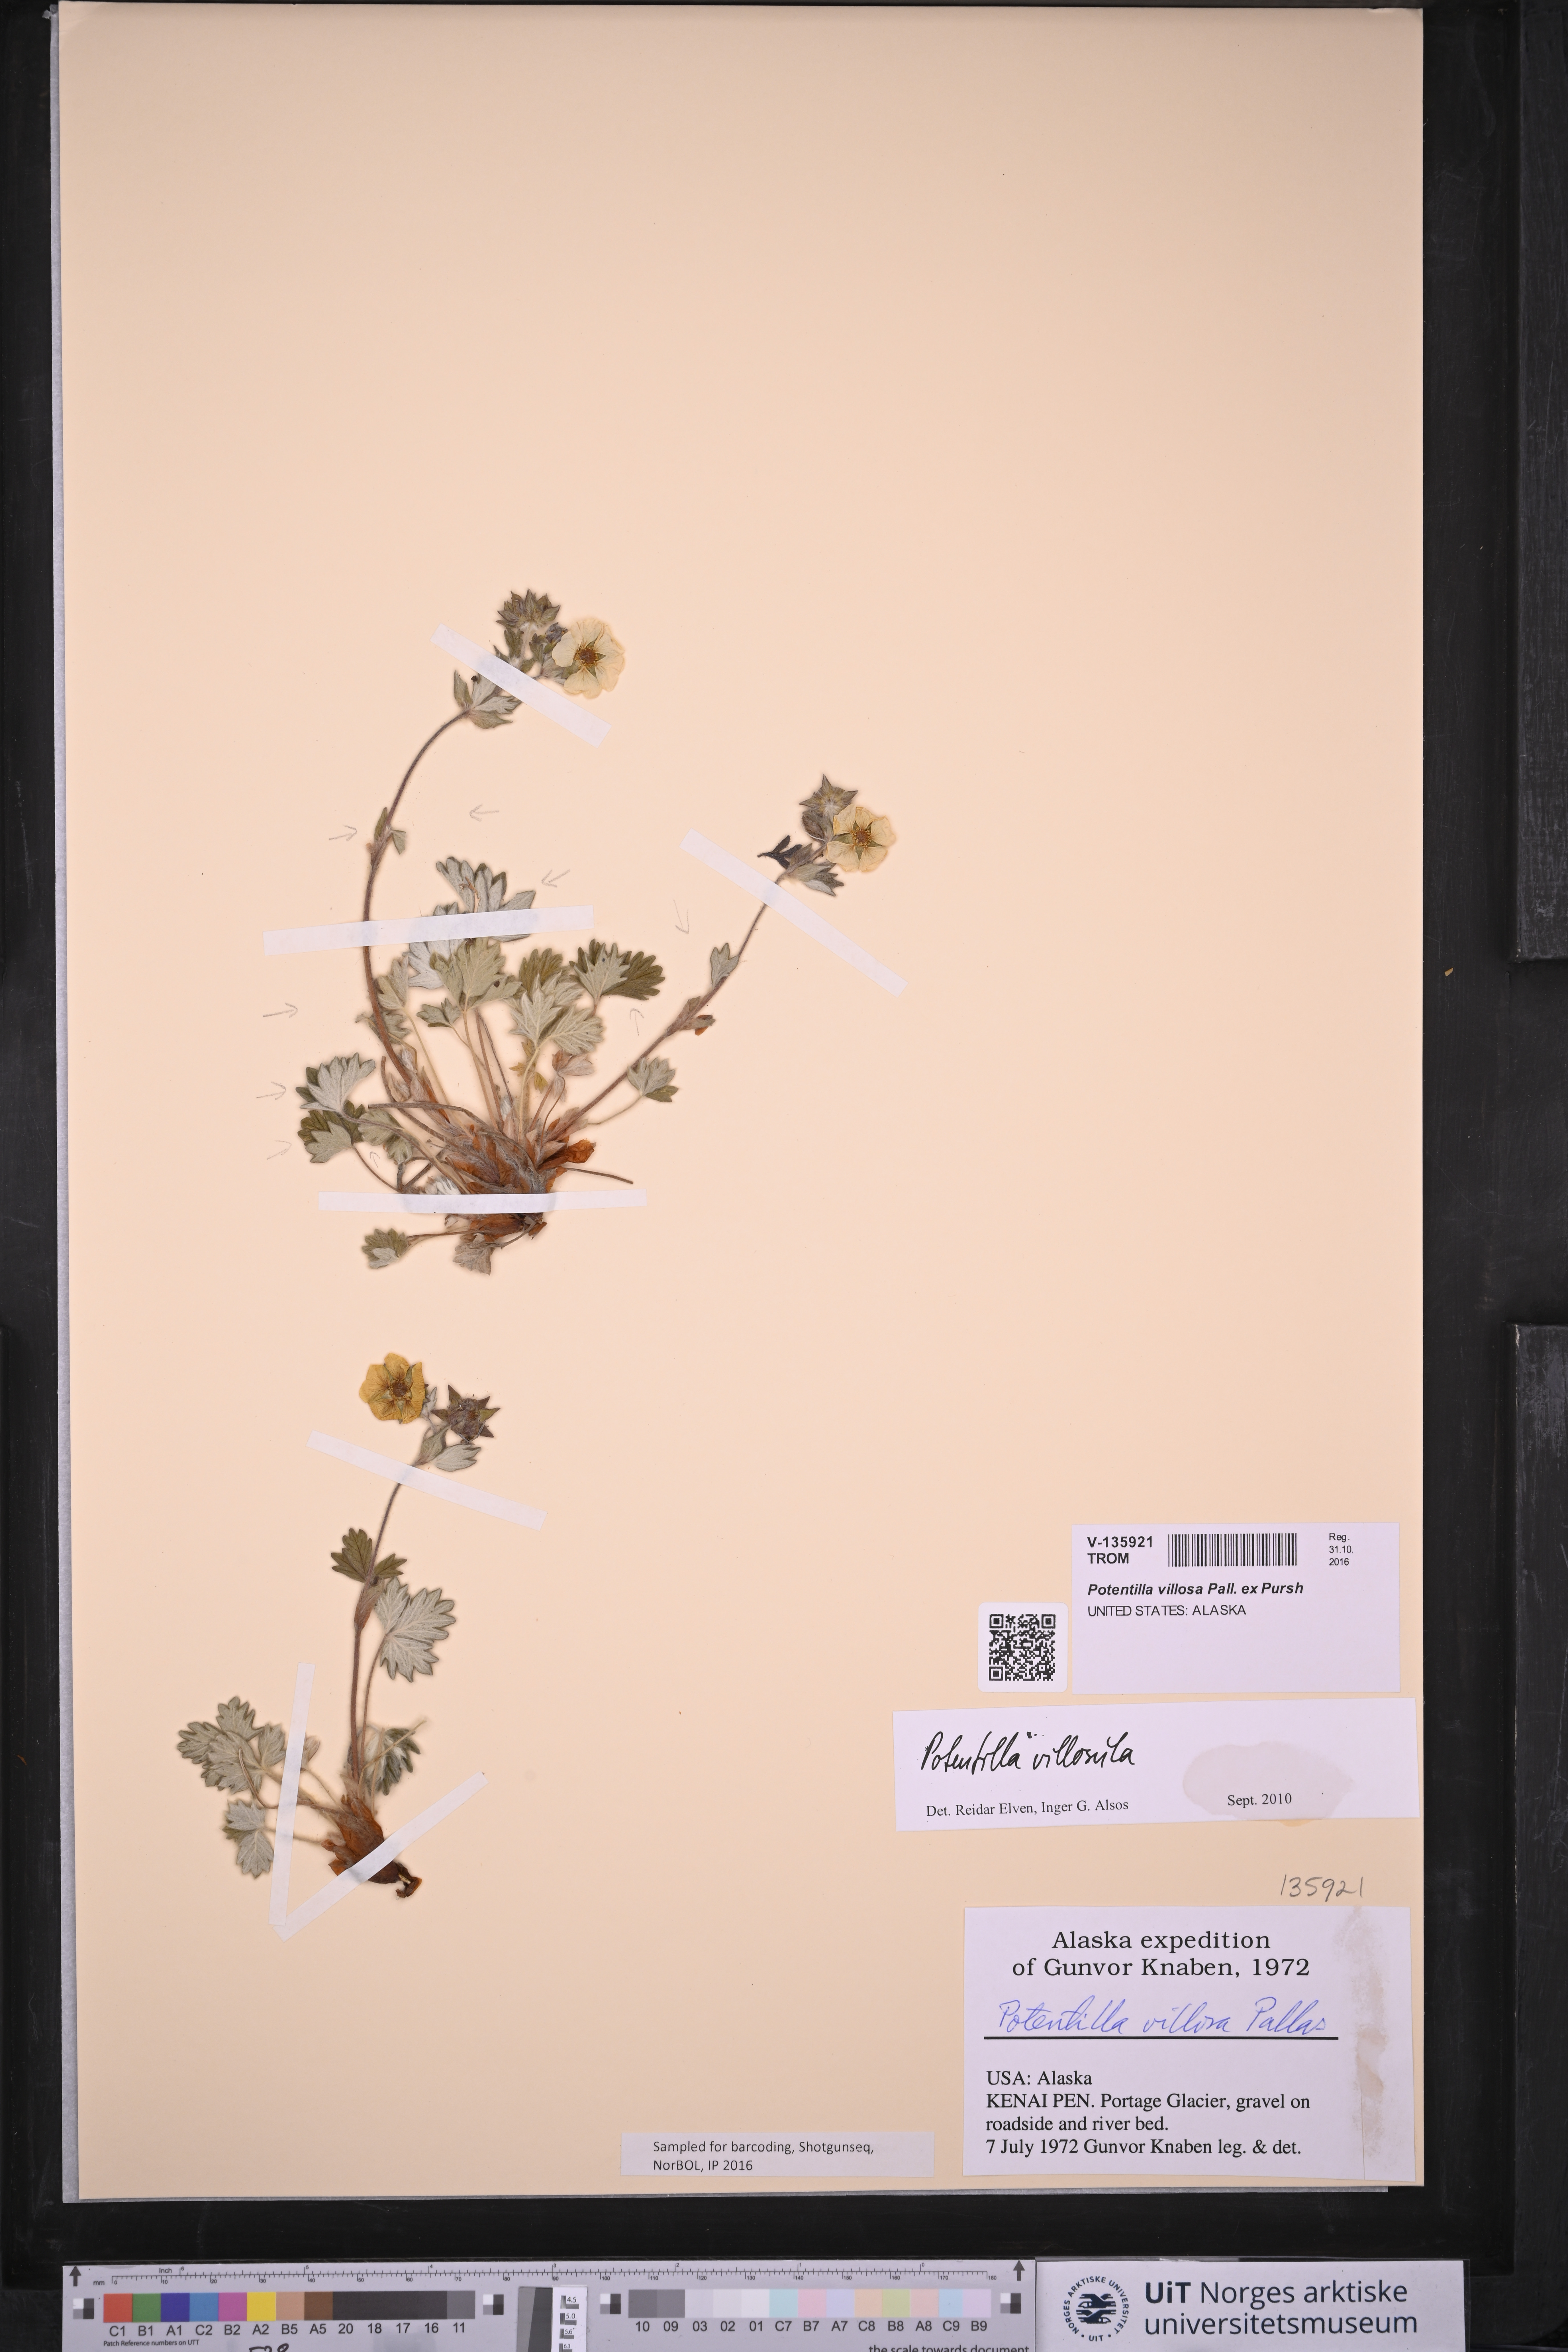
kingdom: Plantae
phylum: Tracheophyta
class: Magnoliopsida
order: Rosales
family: Rosaceae
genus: Potentilla
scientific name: Potentilla villosula
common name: Finely villous cinquefoil
